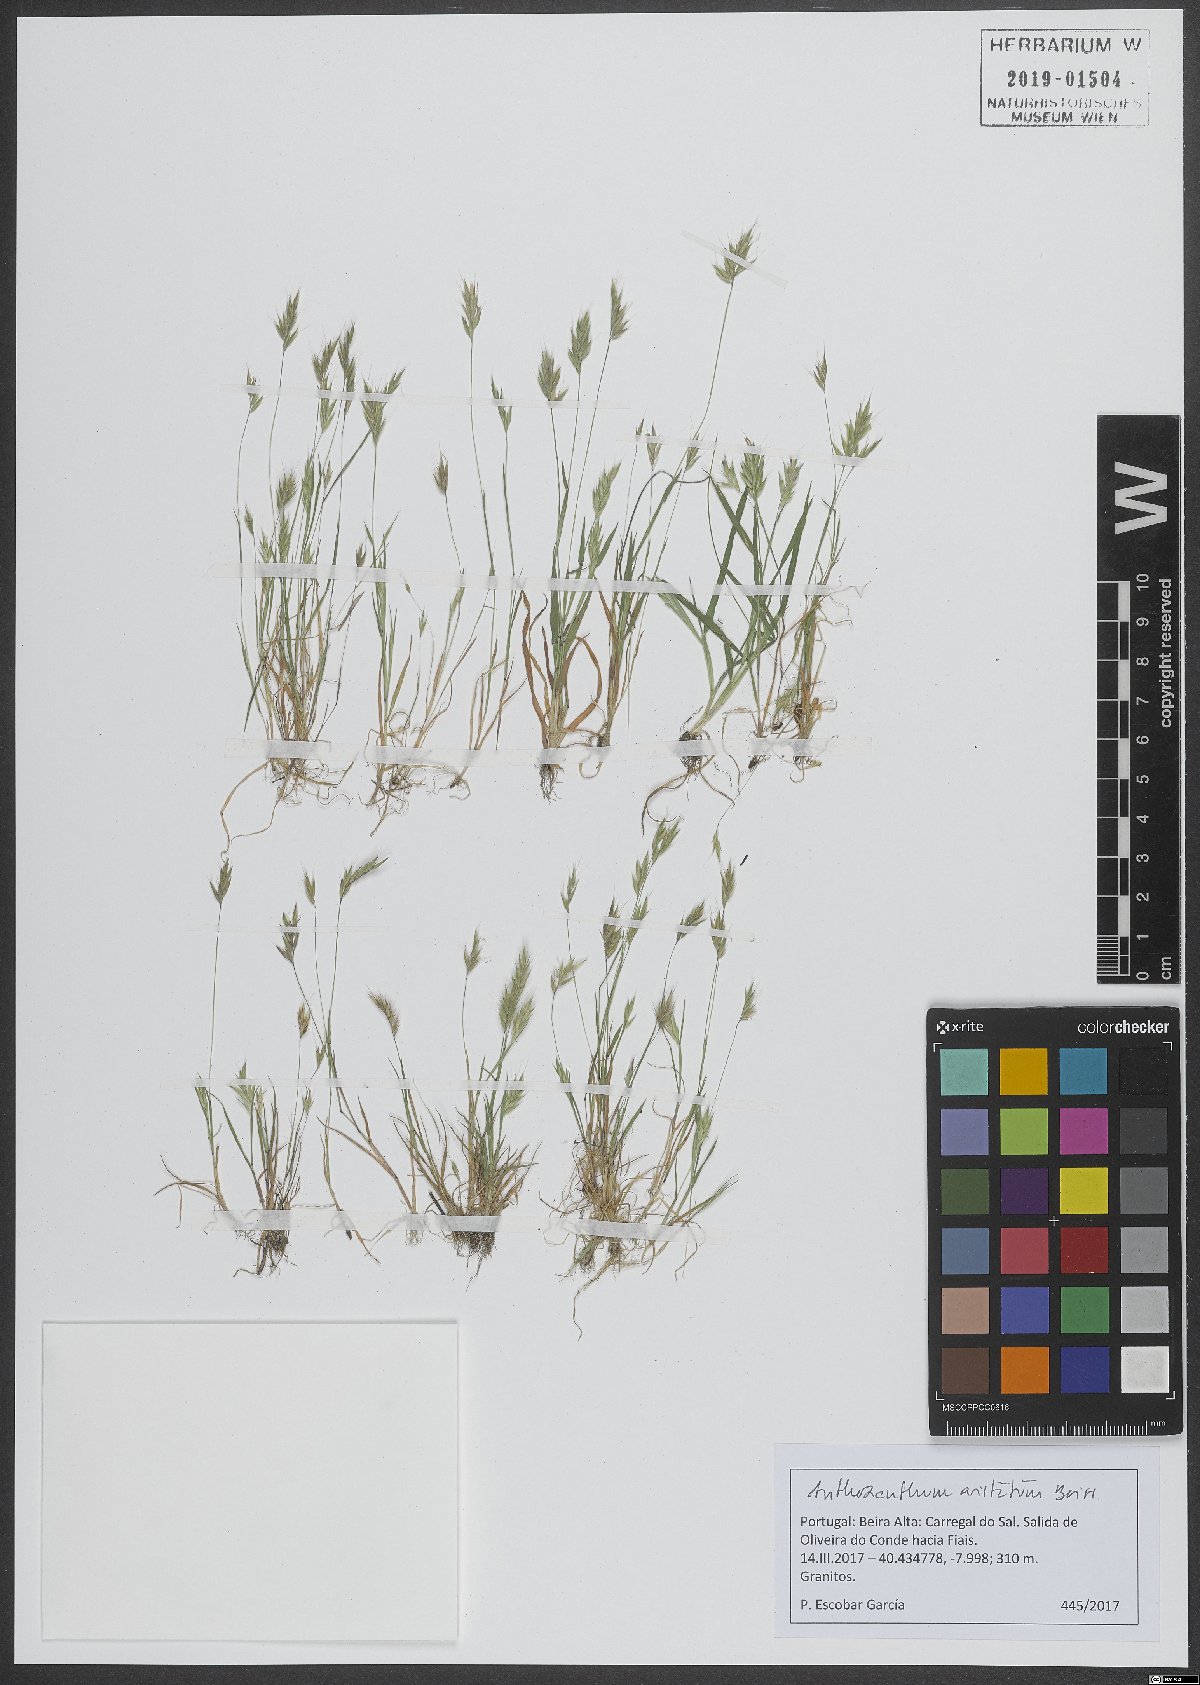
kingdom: Plantae
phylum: Tracheophyta
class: Liliopsida
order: Poales
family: Poaceae
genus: Anthoxanthum
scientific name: Anthoxanthum aristatum
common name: Annual vernal-grass
